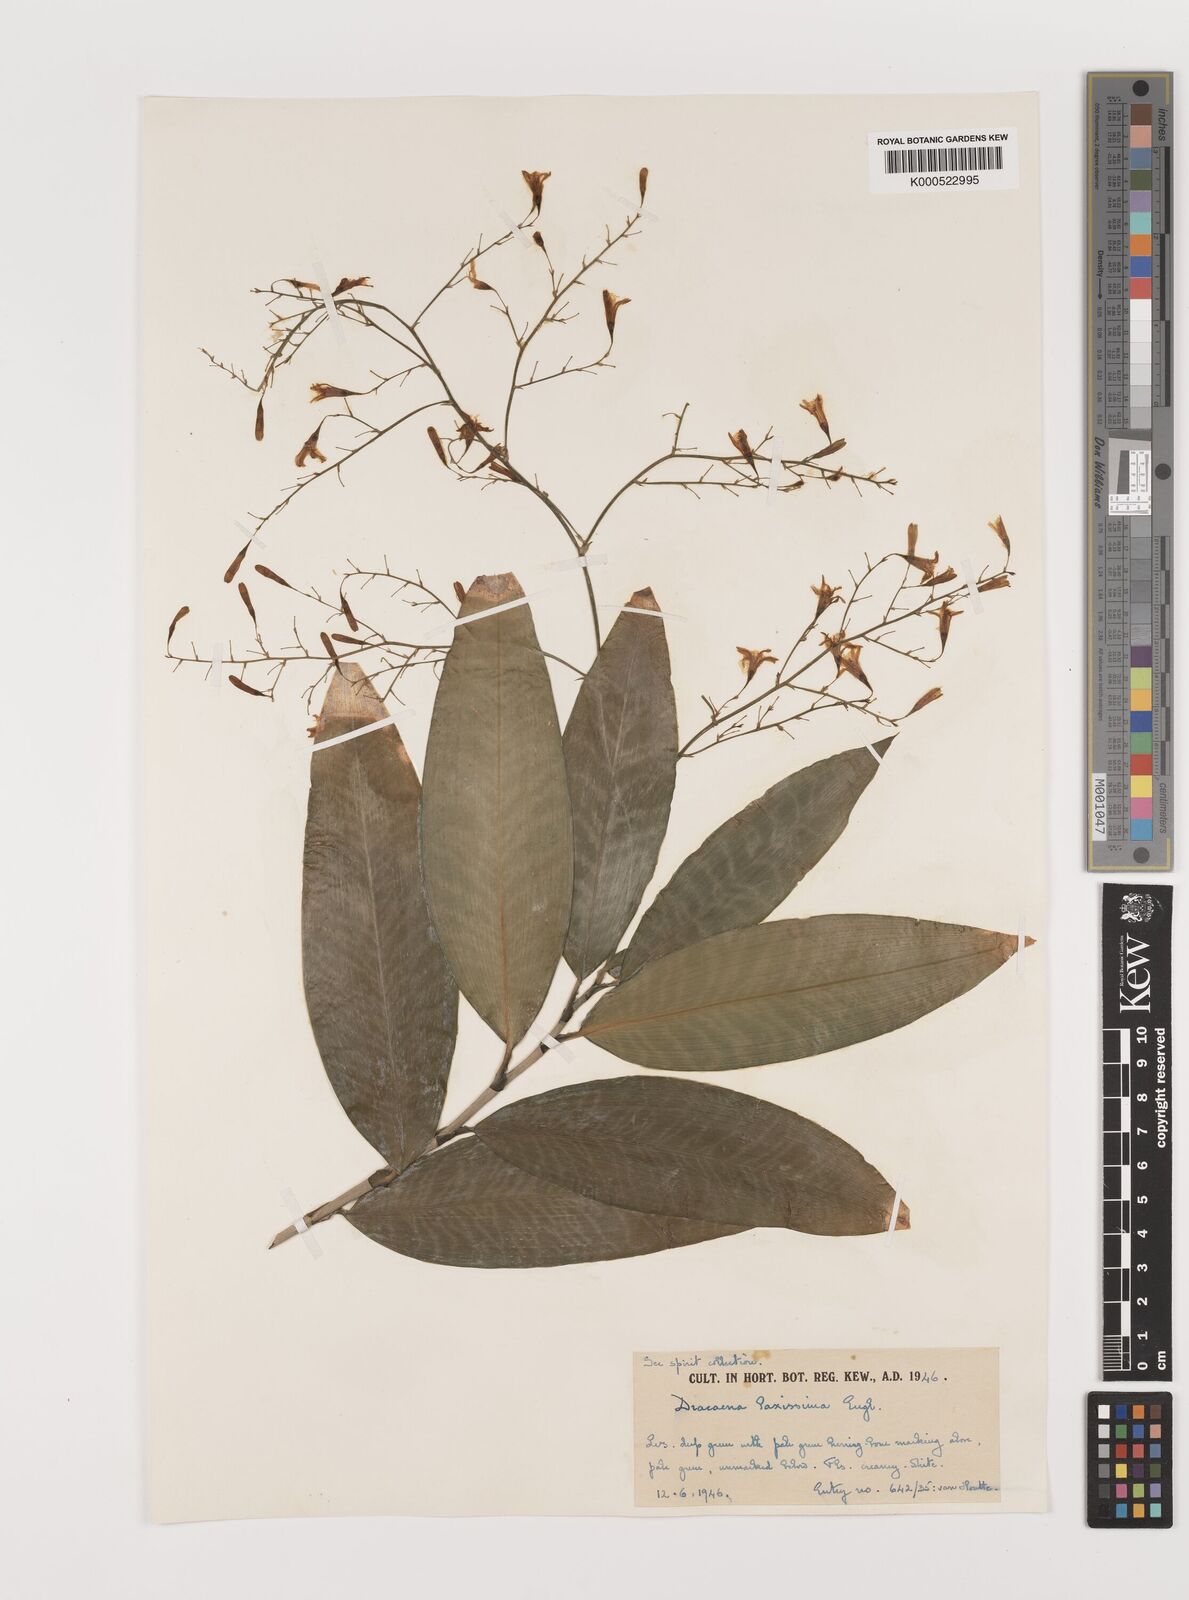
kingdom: Plantae
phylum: Tracheophyta
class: Liliopsida
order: Asparagales
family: Asparagaceae
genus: Dracaena
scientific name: Dracaena laxissima
